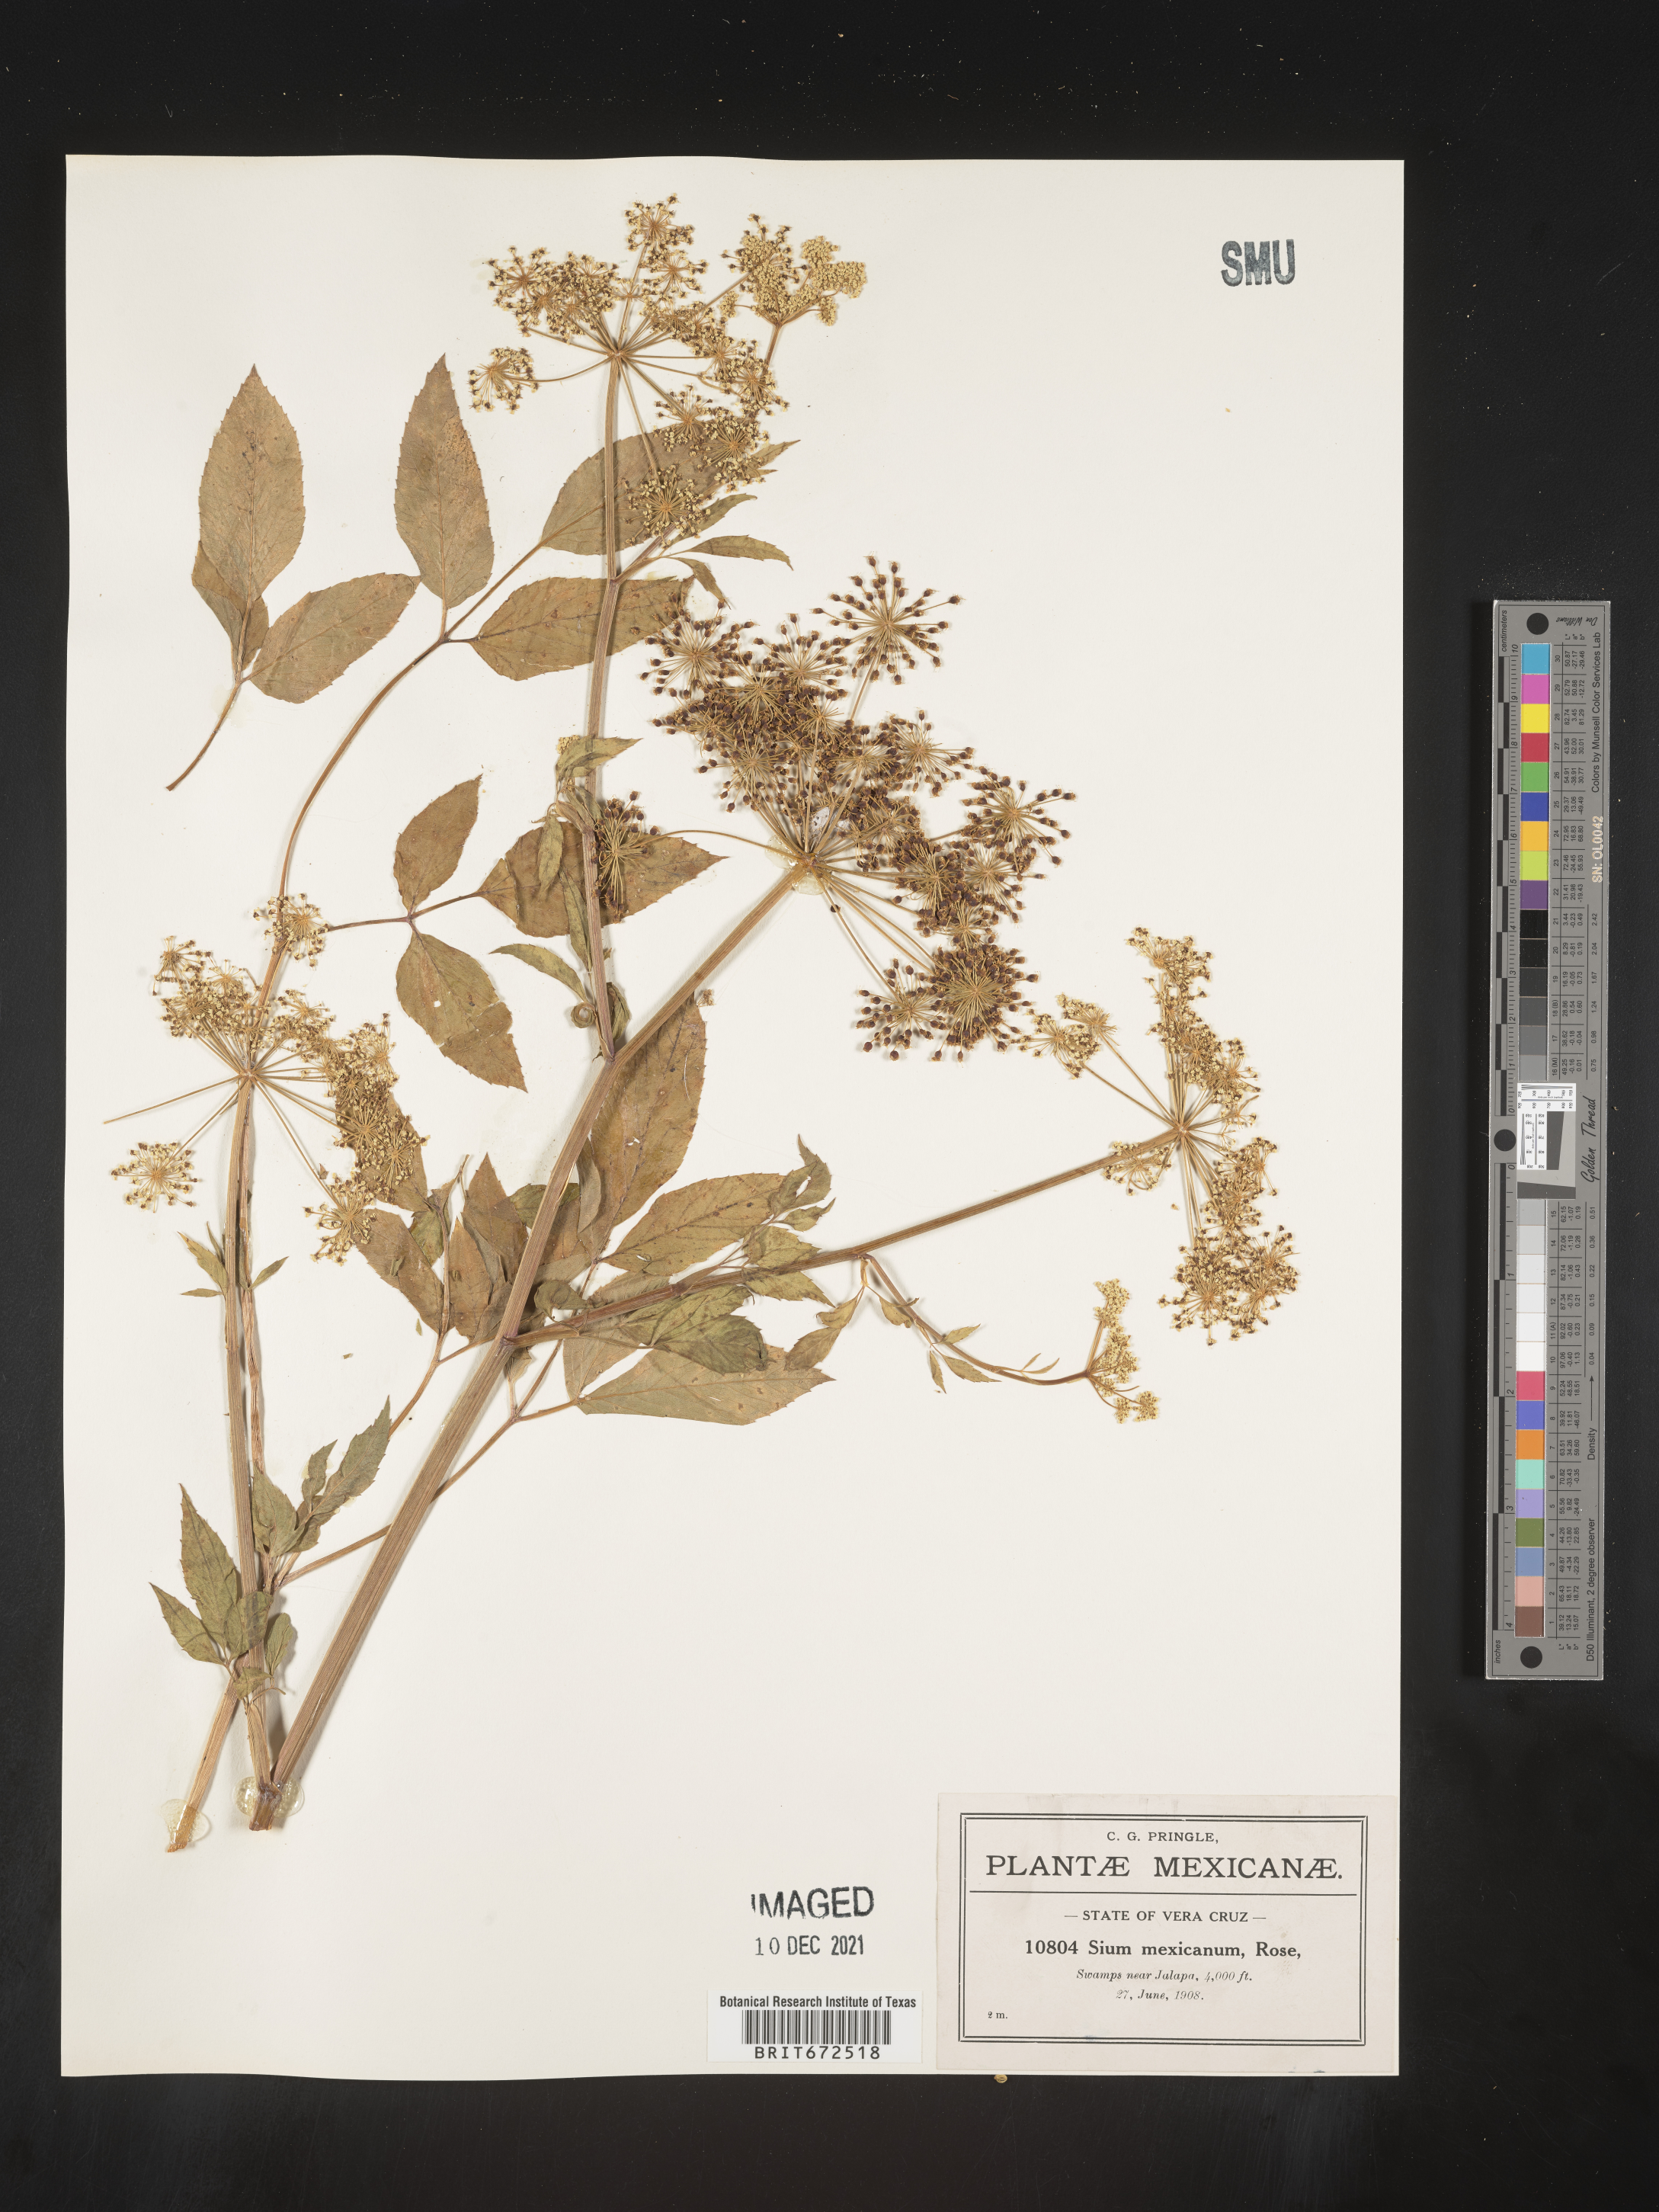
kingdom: Plantae
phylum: Tracheophyta
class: Magnoliopsida
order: Apiales
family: Apiaceae
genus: Sium
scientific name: Sium
